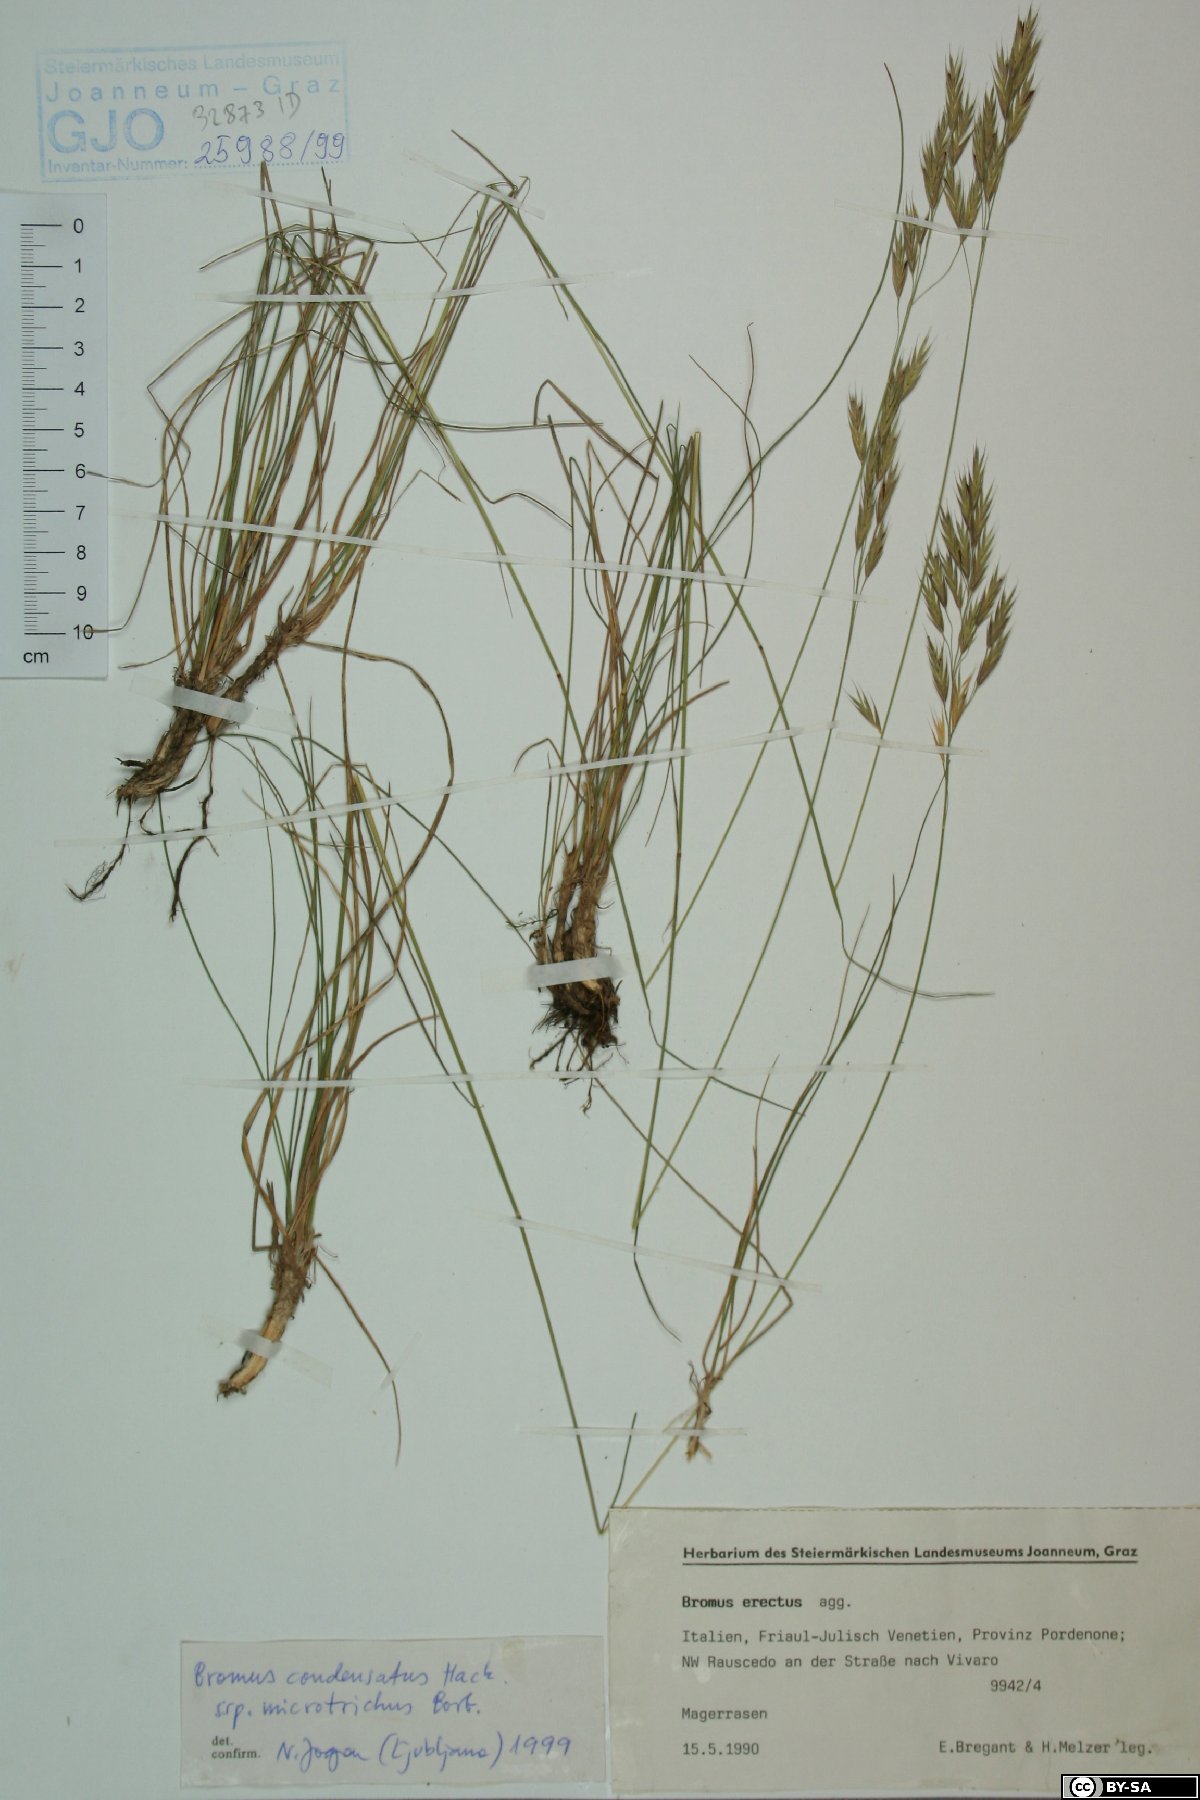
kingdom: Plantae
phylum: Tracheophyta
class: Liliopsida
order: Poales
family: Poaceae
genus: Bromus
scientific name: Bromus condensatus
